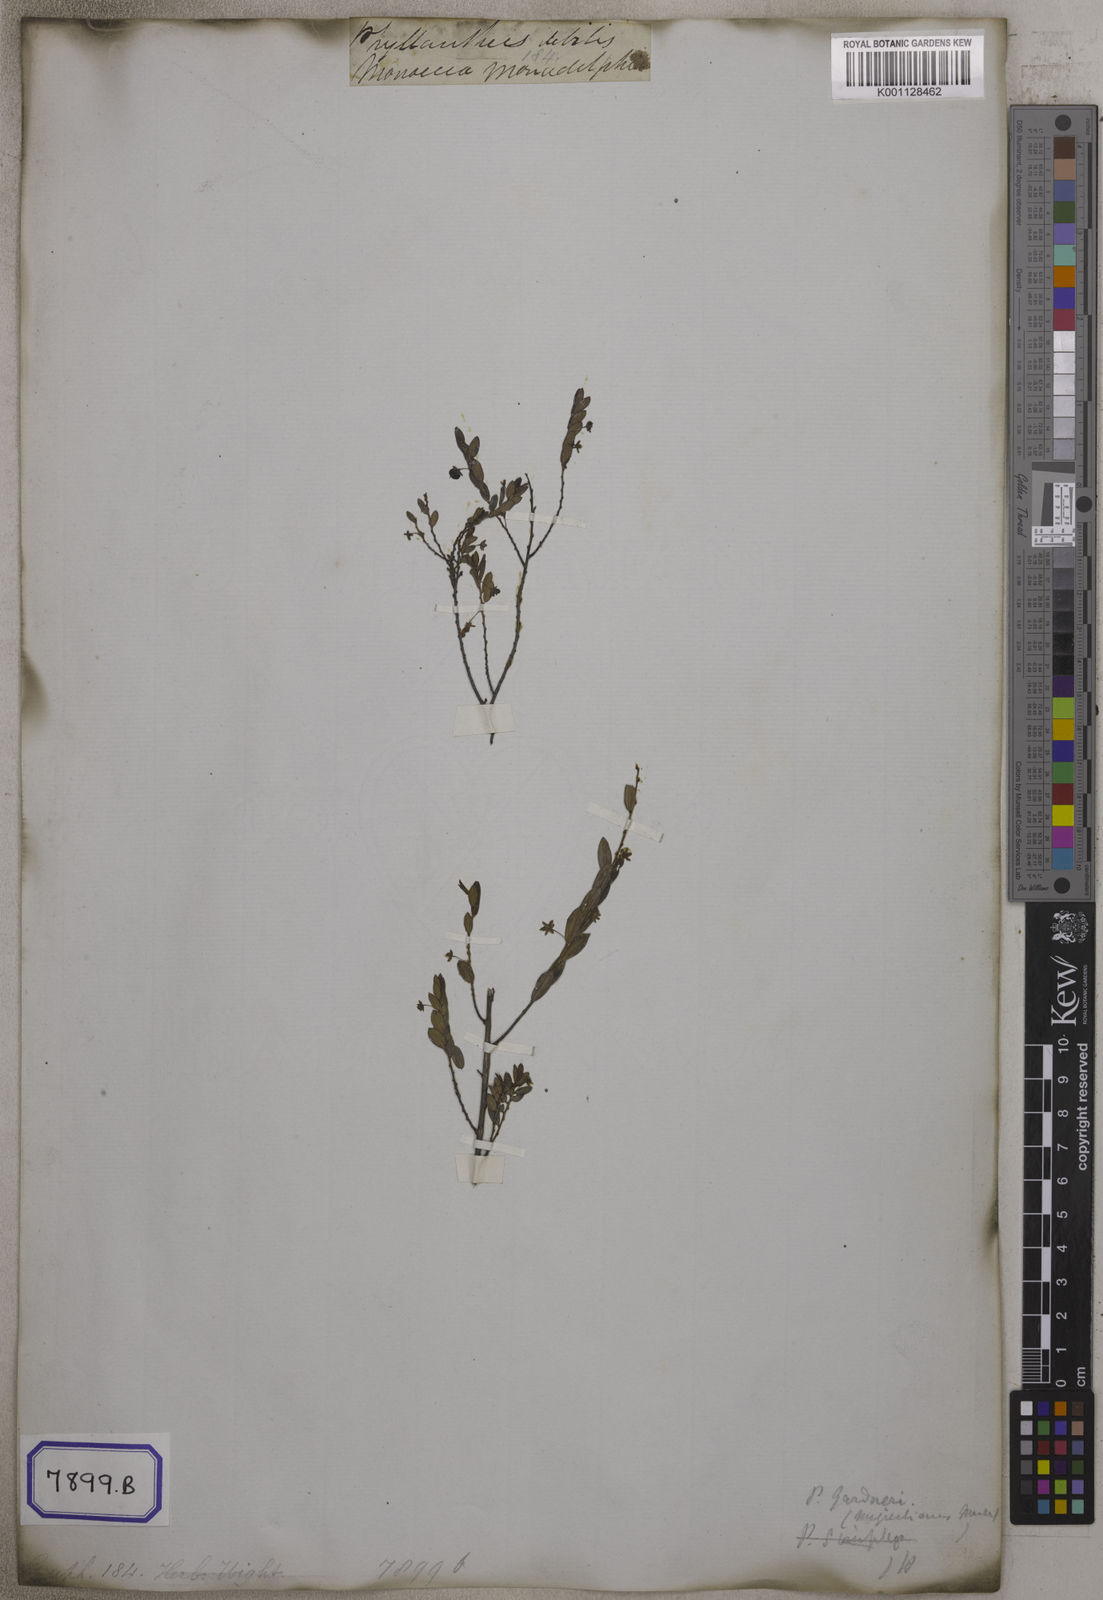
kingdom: Plantae
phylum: Tracheophyta
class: Magnoliopsida
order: Malpighiales
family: Euphorbiaceae
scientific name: Euphorbiaceae
